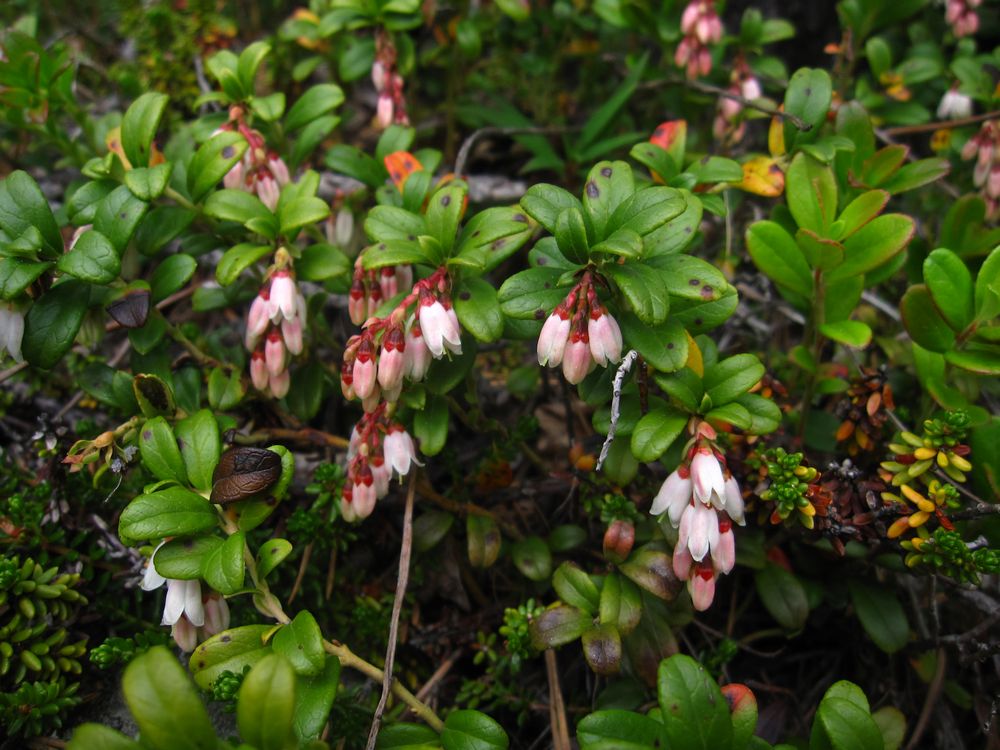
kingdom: Plantae
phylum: Tracheophyta
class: Magnoliopsida
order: Ericales
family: Ericaceae
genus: Vaccinium
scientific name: Vaccinium vitis-idaea
